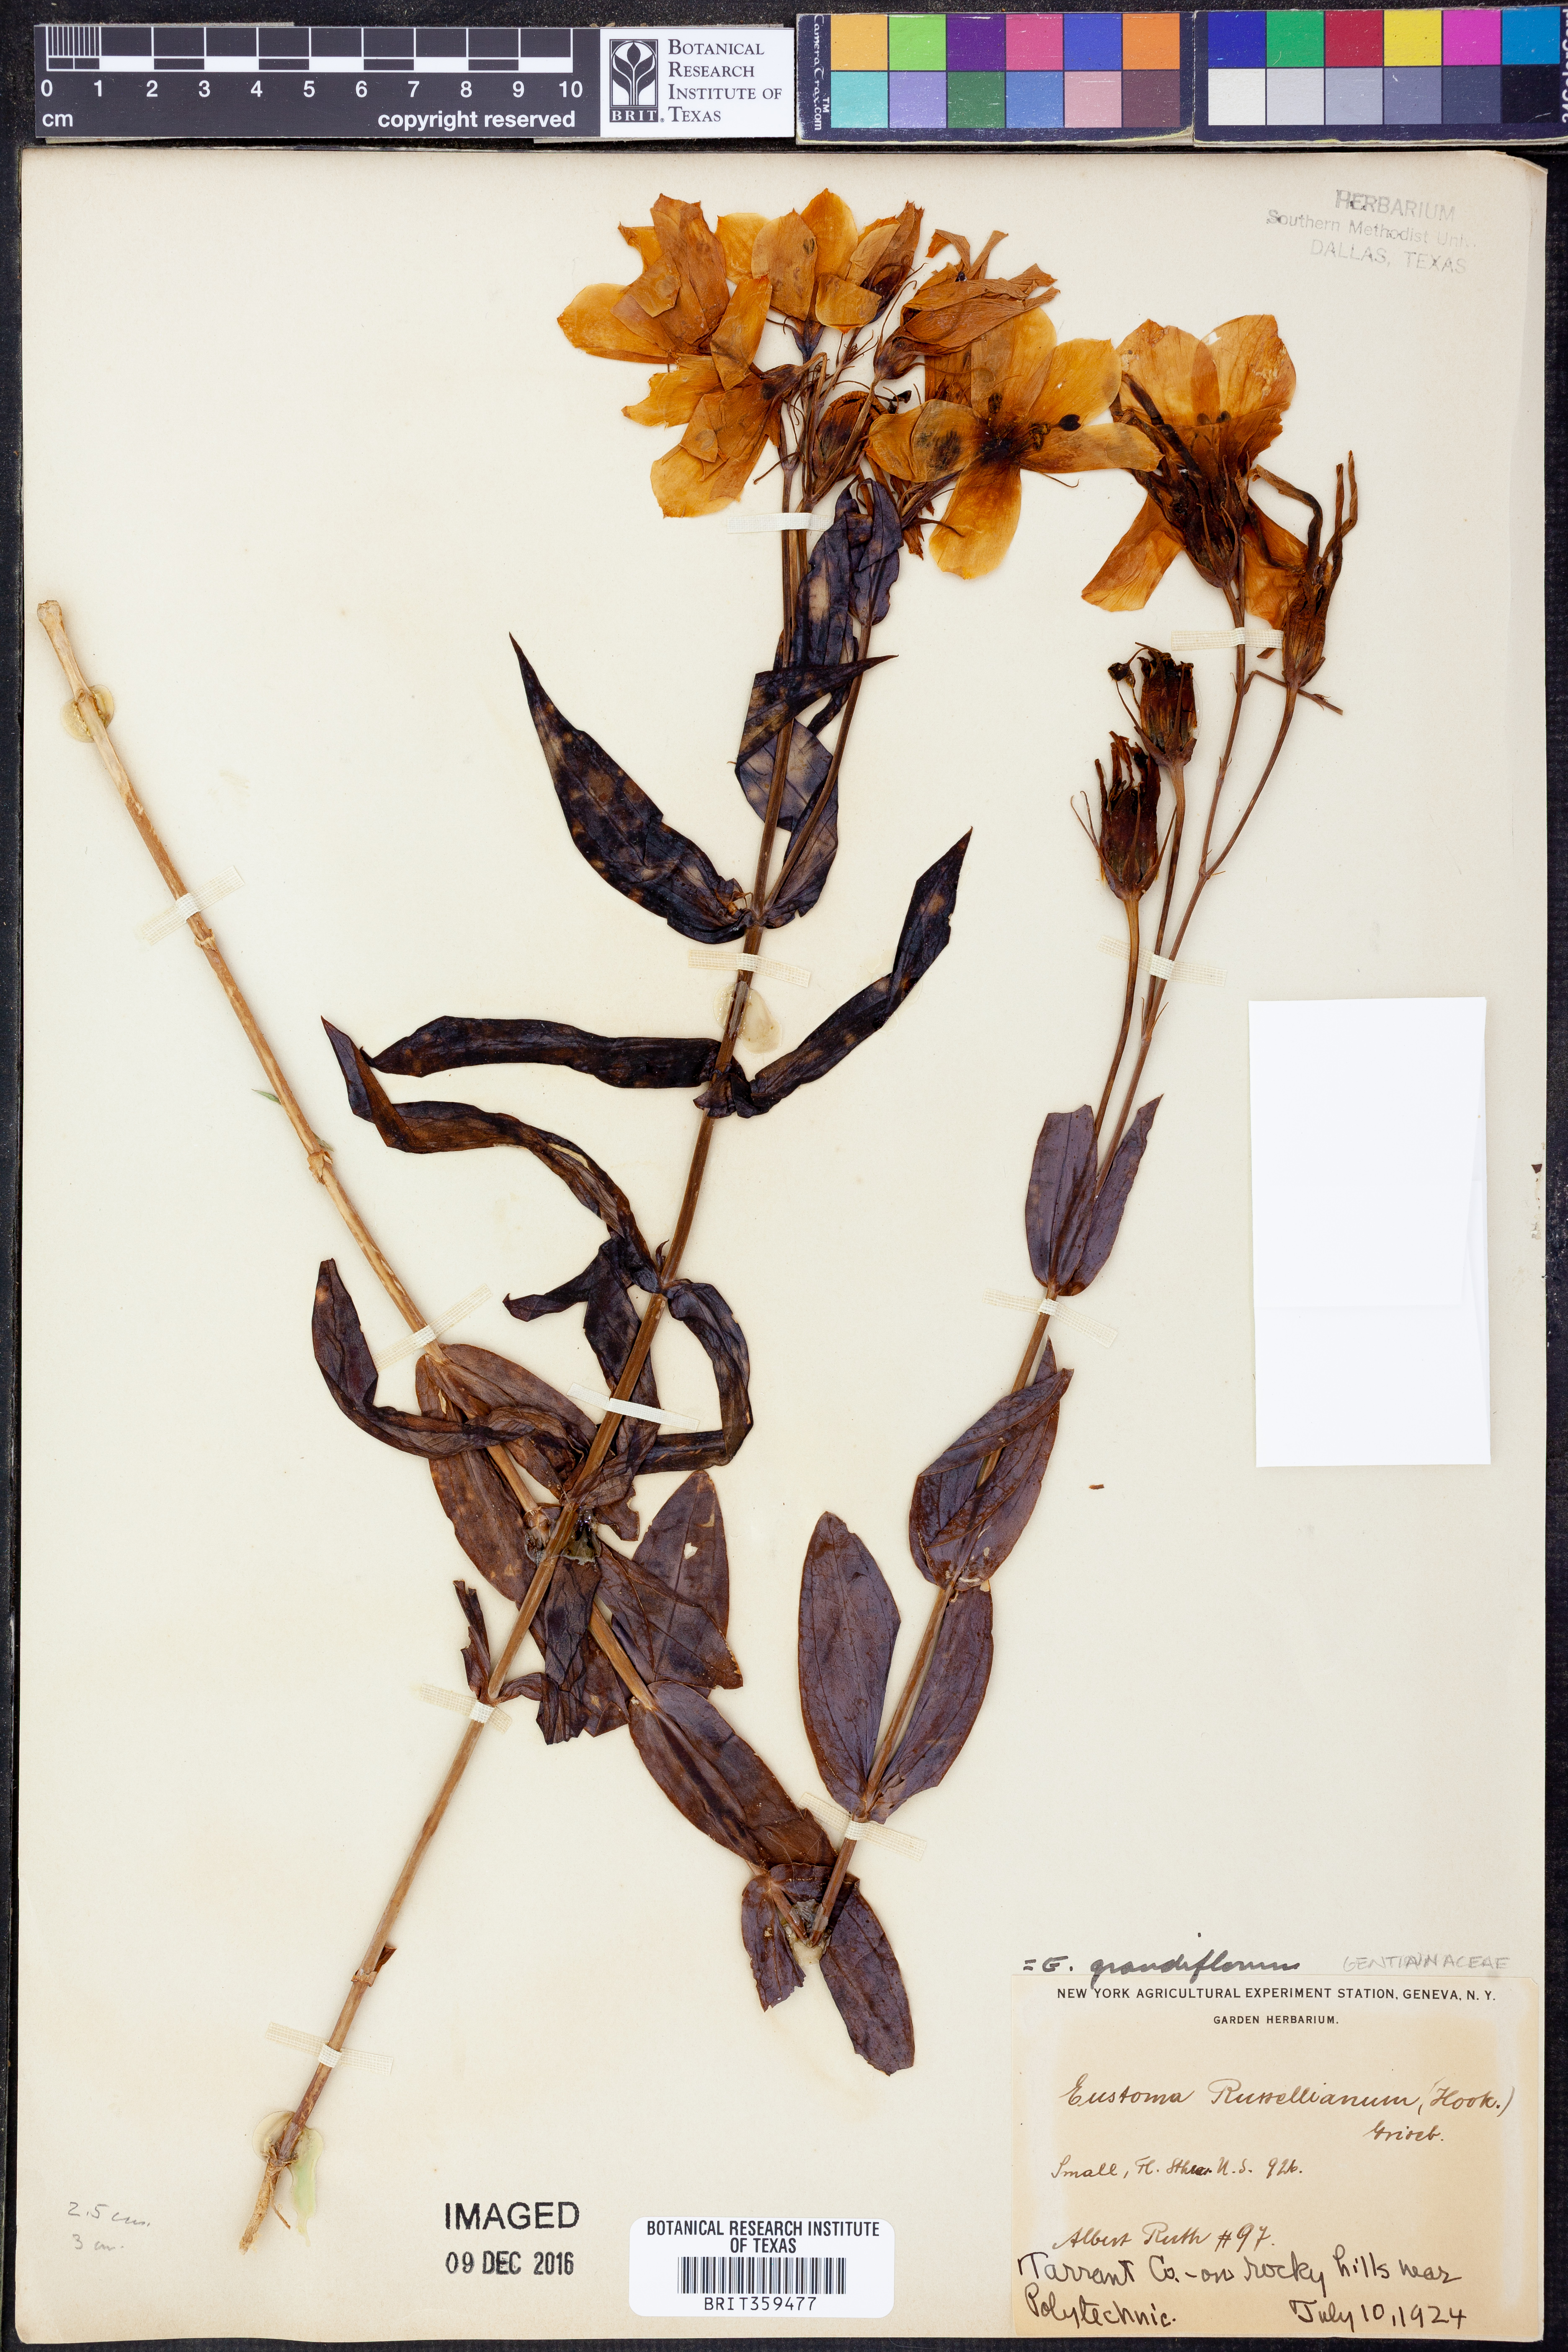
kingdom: Plantae
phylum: Tracheophyta
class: Magnoliopsida
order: Gentianales
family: Gentianaceae
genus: Eustoma
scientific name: Eustoma russellianum
